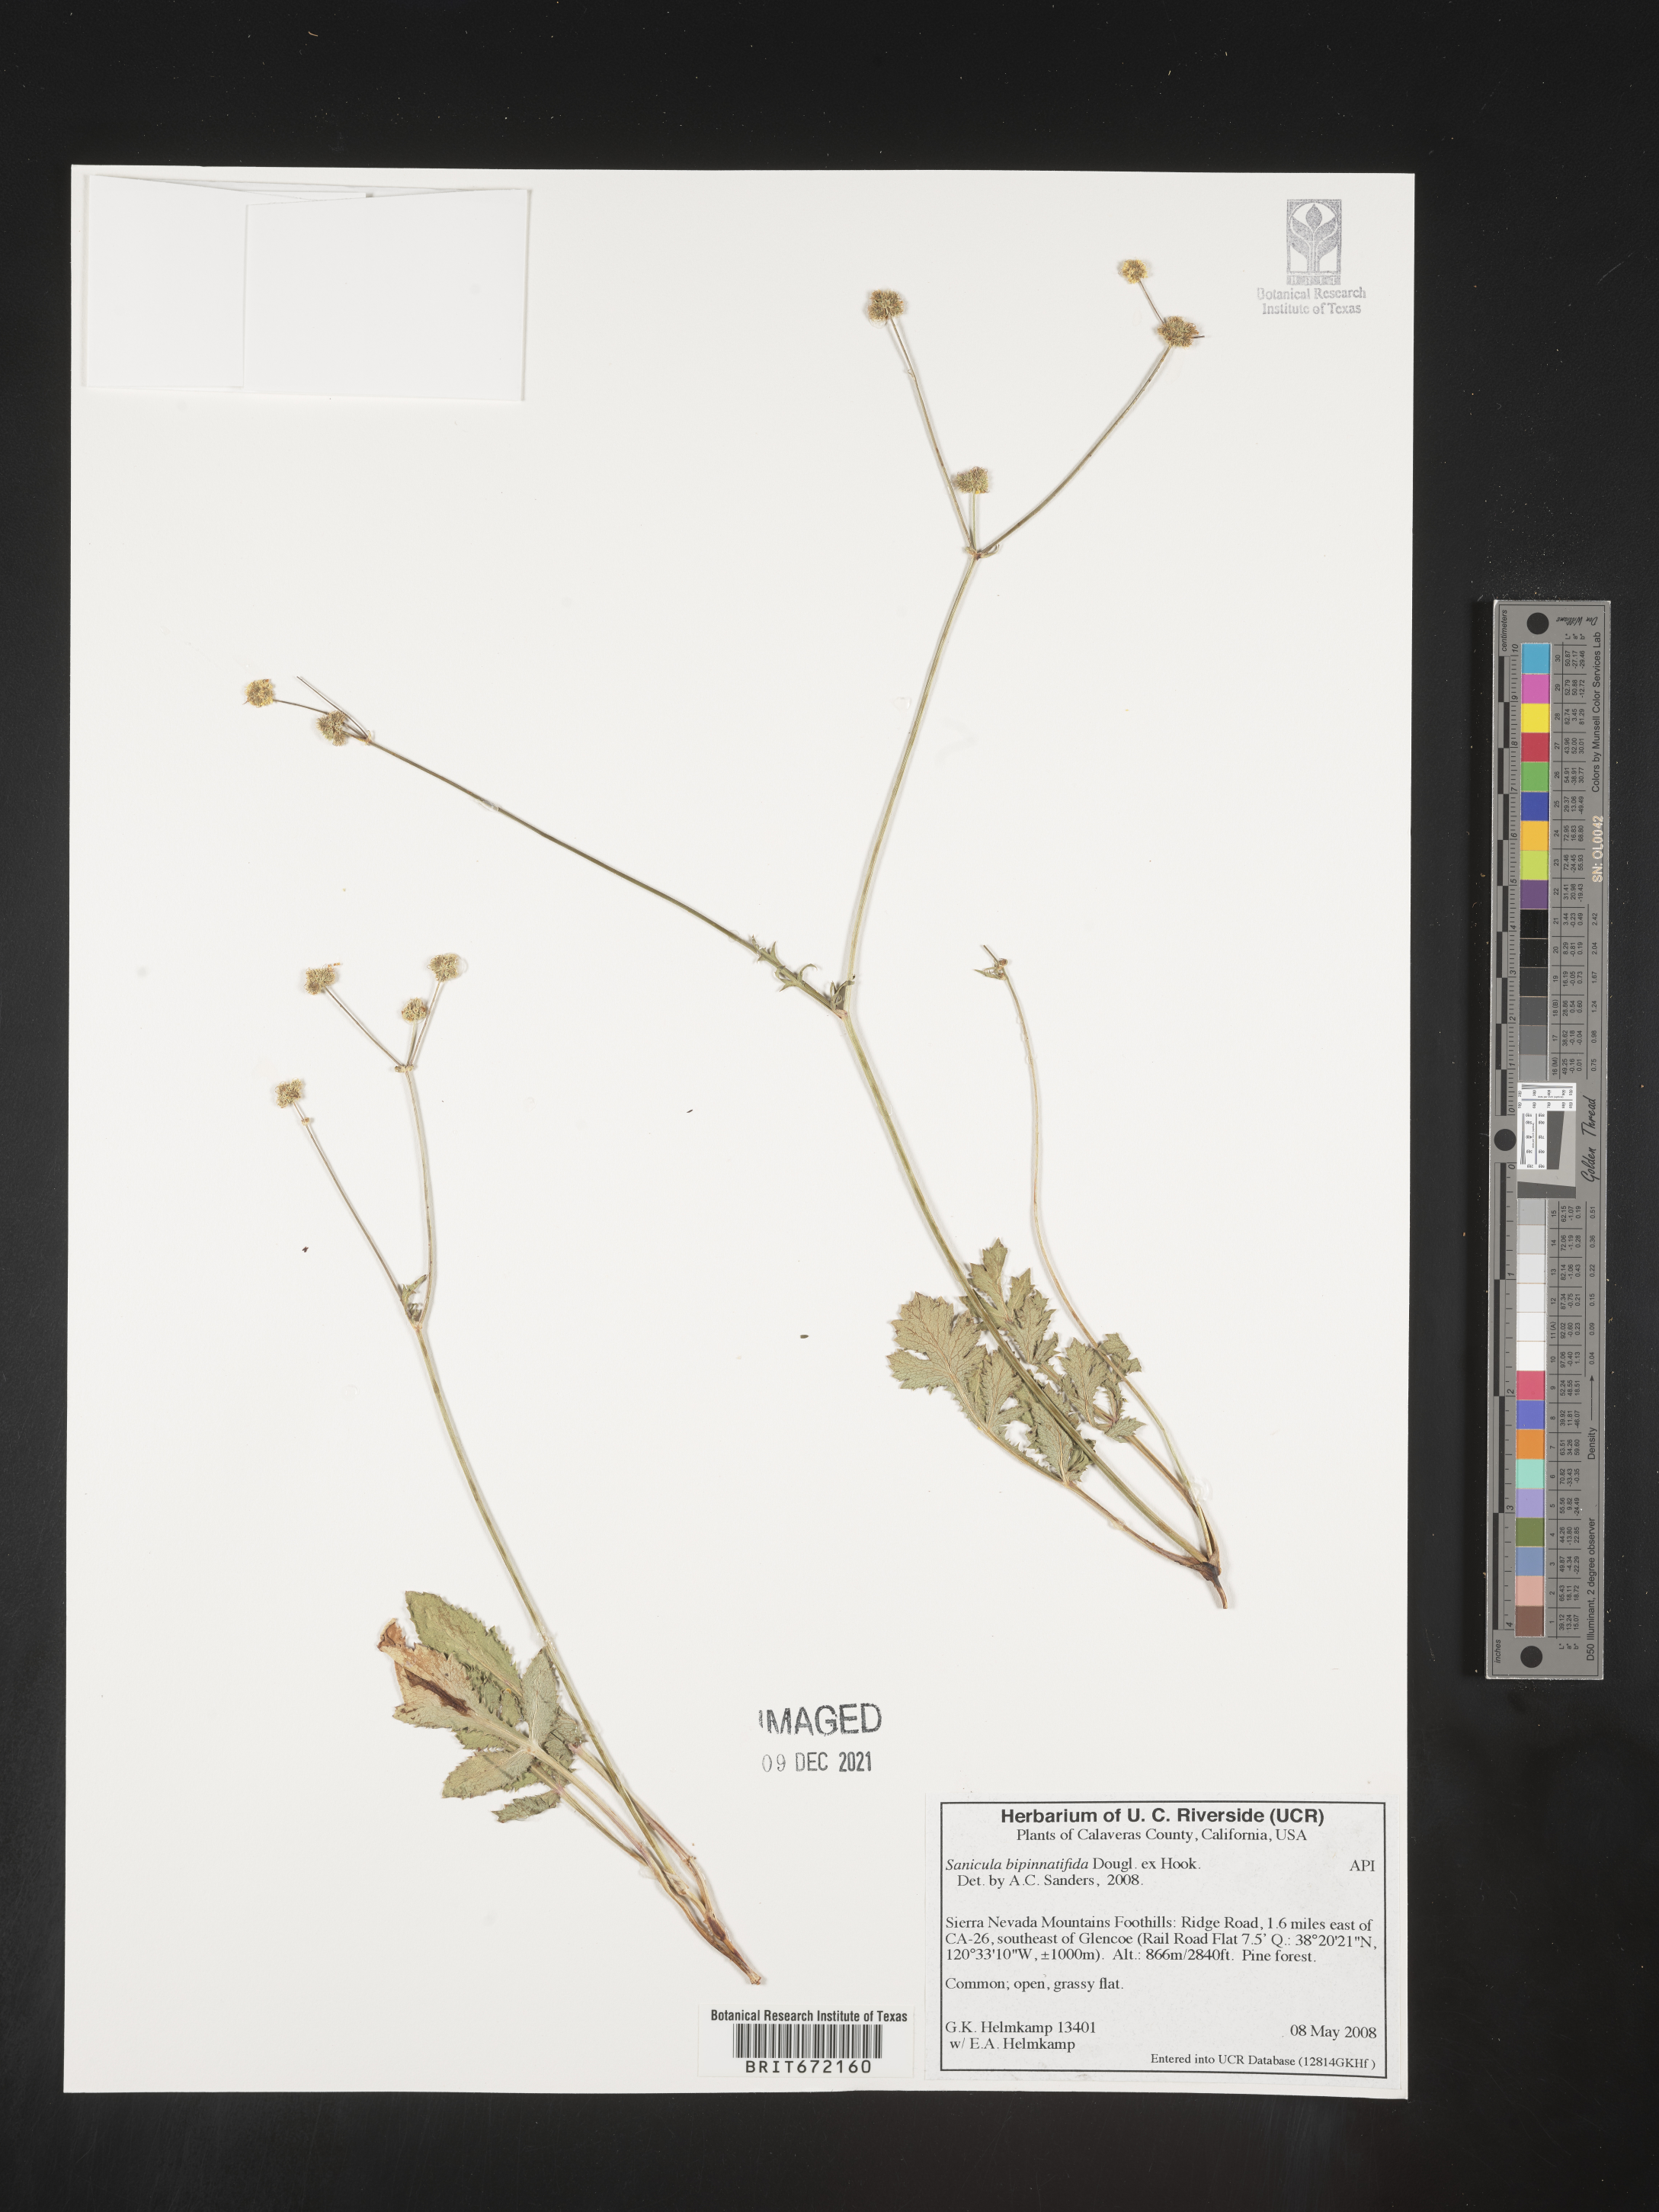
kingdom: Plantae
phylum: Tracheophyta
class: Magnoliopsida
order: Apiales
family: Apiaceae
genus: Sanicula
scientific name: Sanicula
